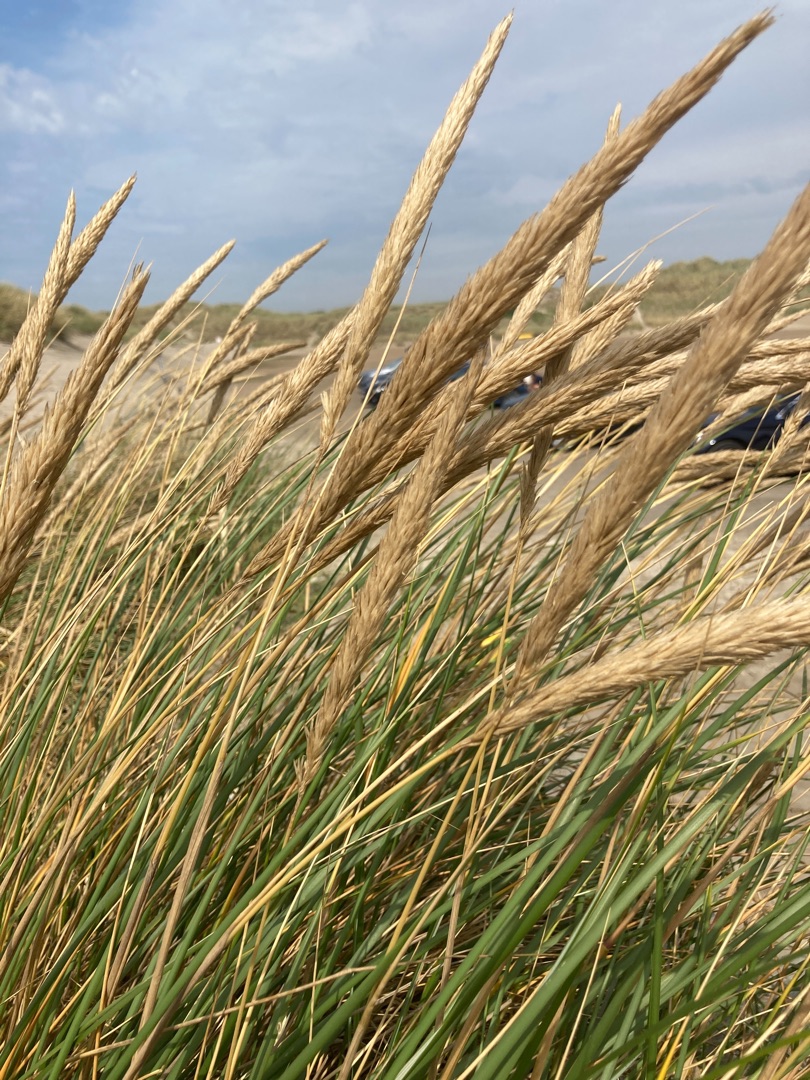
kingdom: Plantae
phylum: Tracheophyta
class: Liliopsida
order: Poales
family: Poaceae
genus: Calamagrostis
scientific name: Calamagrostis arenaria
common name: Sand-hjælme
